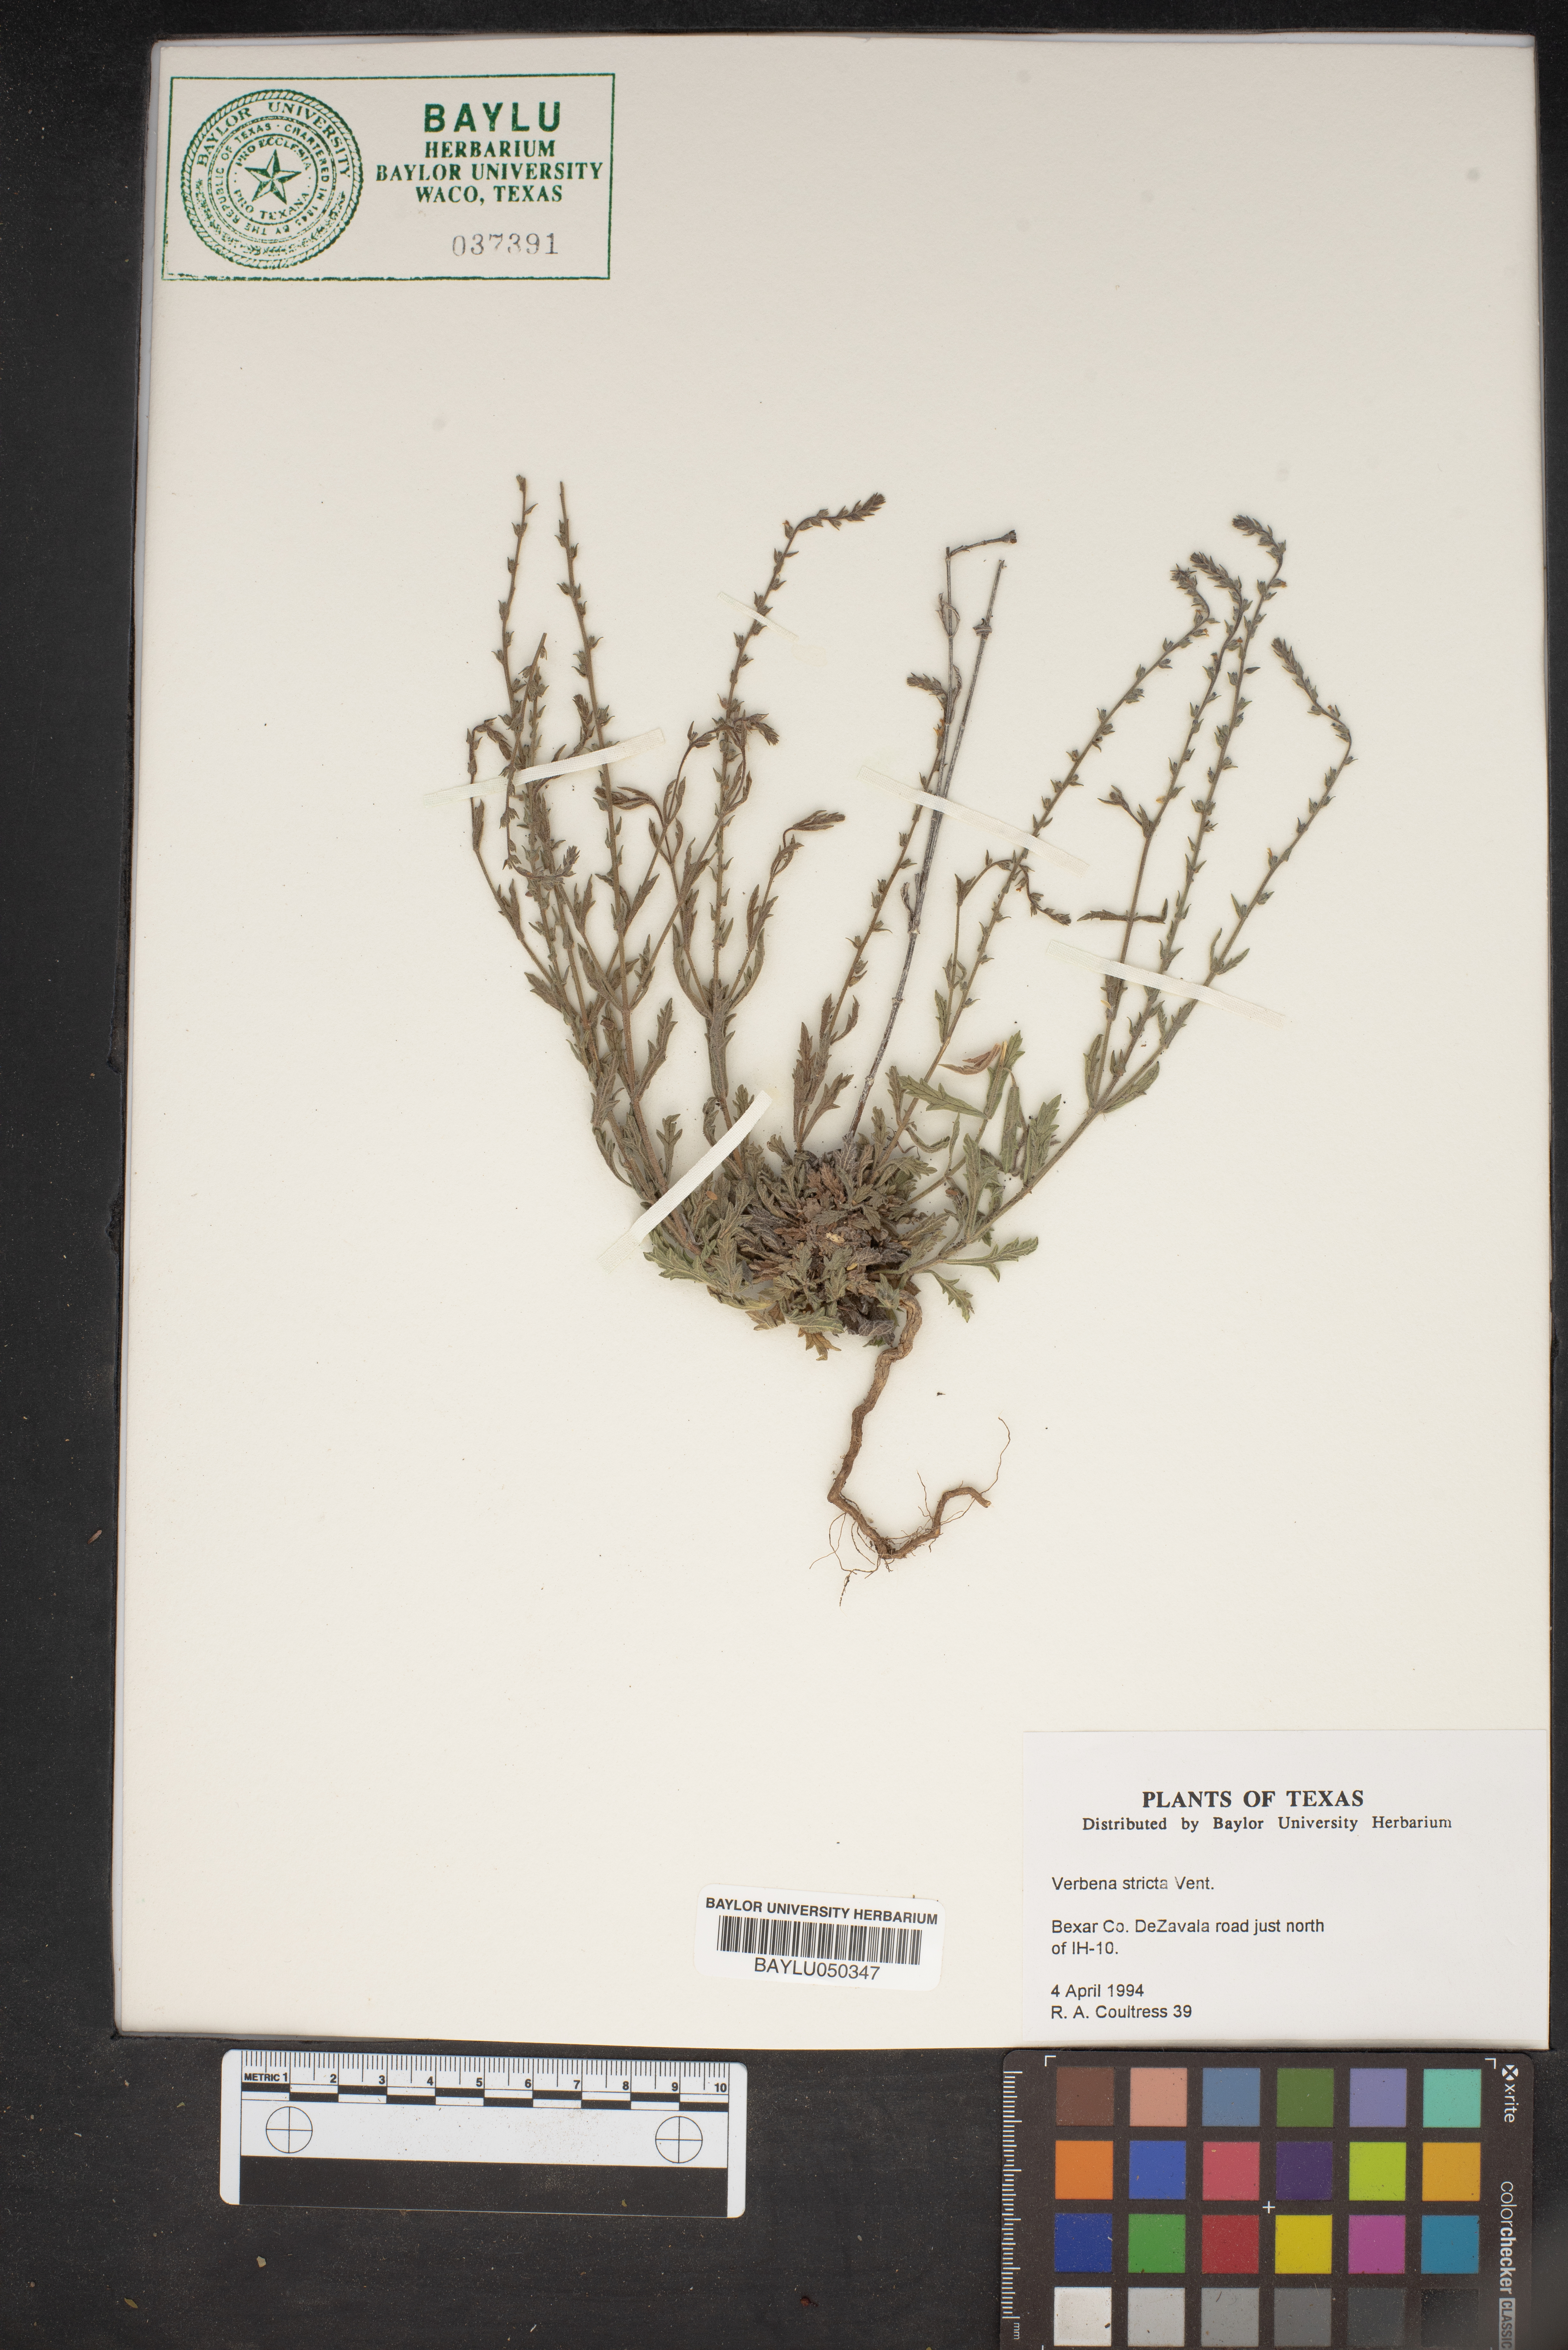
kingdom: Plantae
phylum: Tracheophyta
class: Magnoliopsida
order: Lamiales
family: Verbenaceae
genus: Verbena
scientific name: Verbena stricta
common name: Hoary vervain
